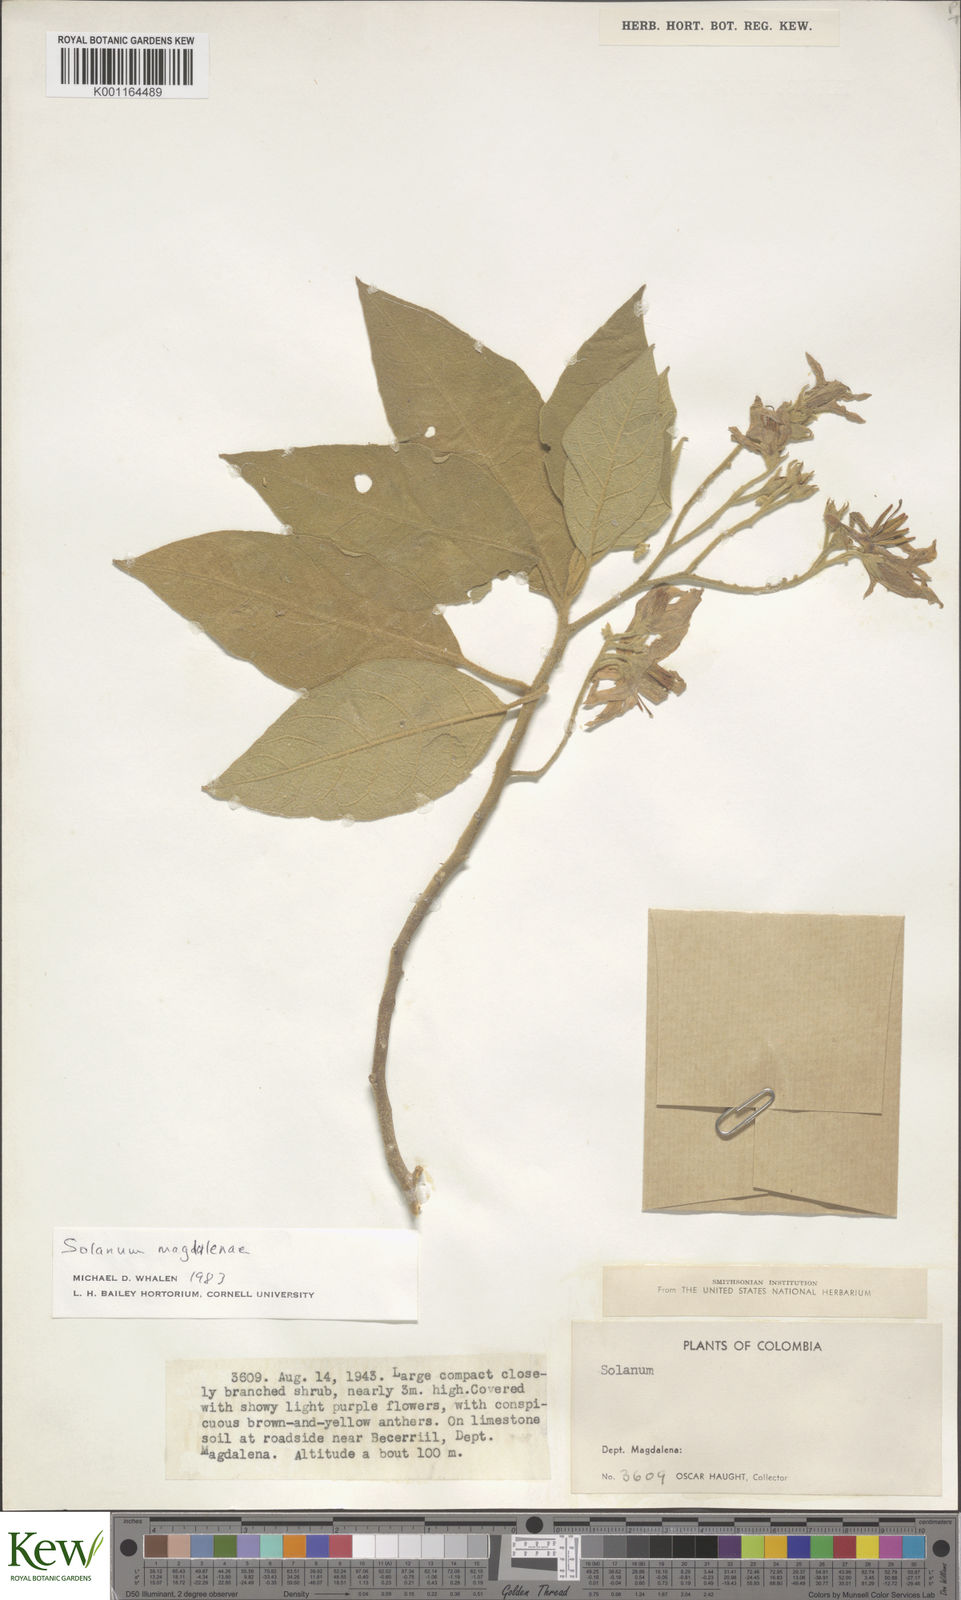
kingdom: Plantae
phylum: Tracheophyta
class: Magnoliopsida
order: Solanales
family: Solanaceae
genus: Solanum
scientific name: Solanum campylacanthum
